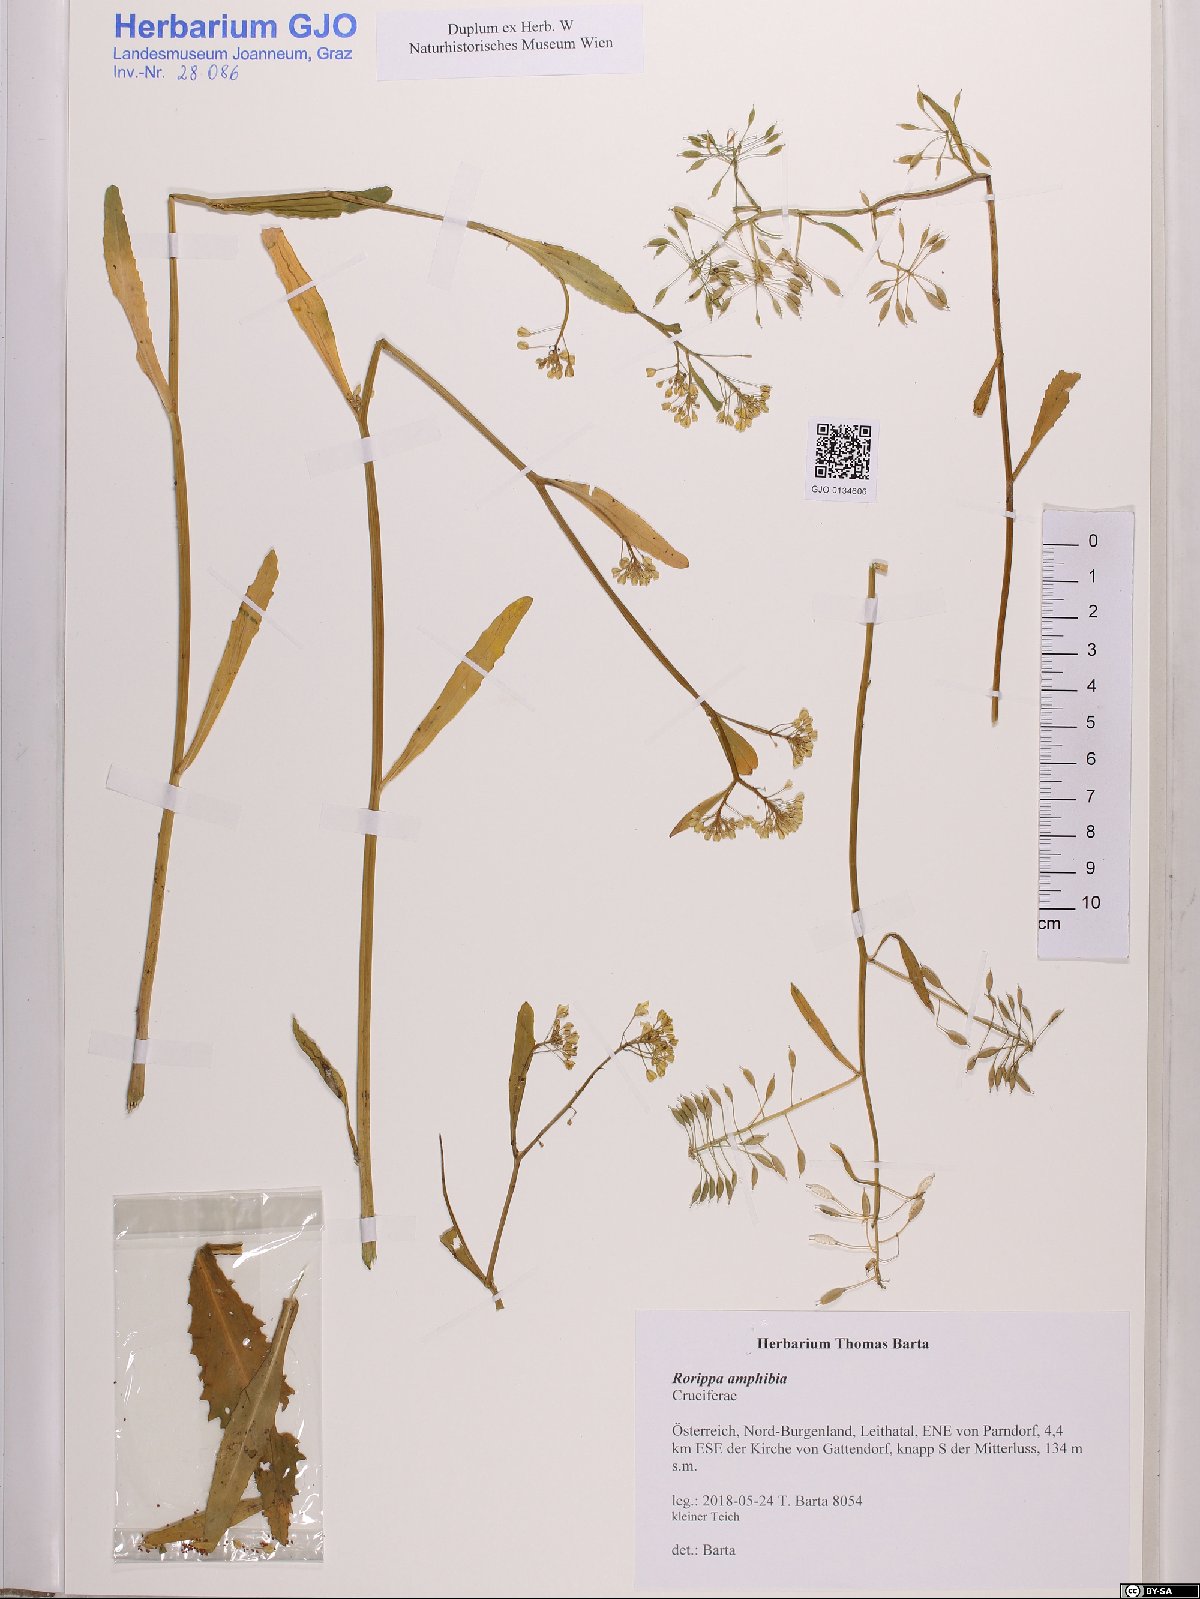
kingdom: Plantae
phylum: Tracheophyta
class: Magnoliopsida
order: Brassicales
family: Brassicaceae
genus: Rorippa
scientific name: Rorippa amphibia
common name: Great yellow-cress
